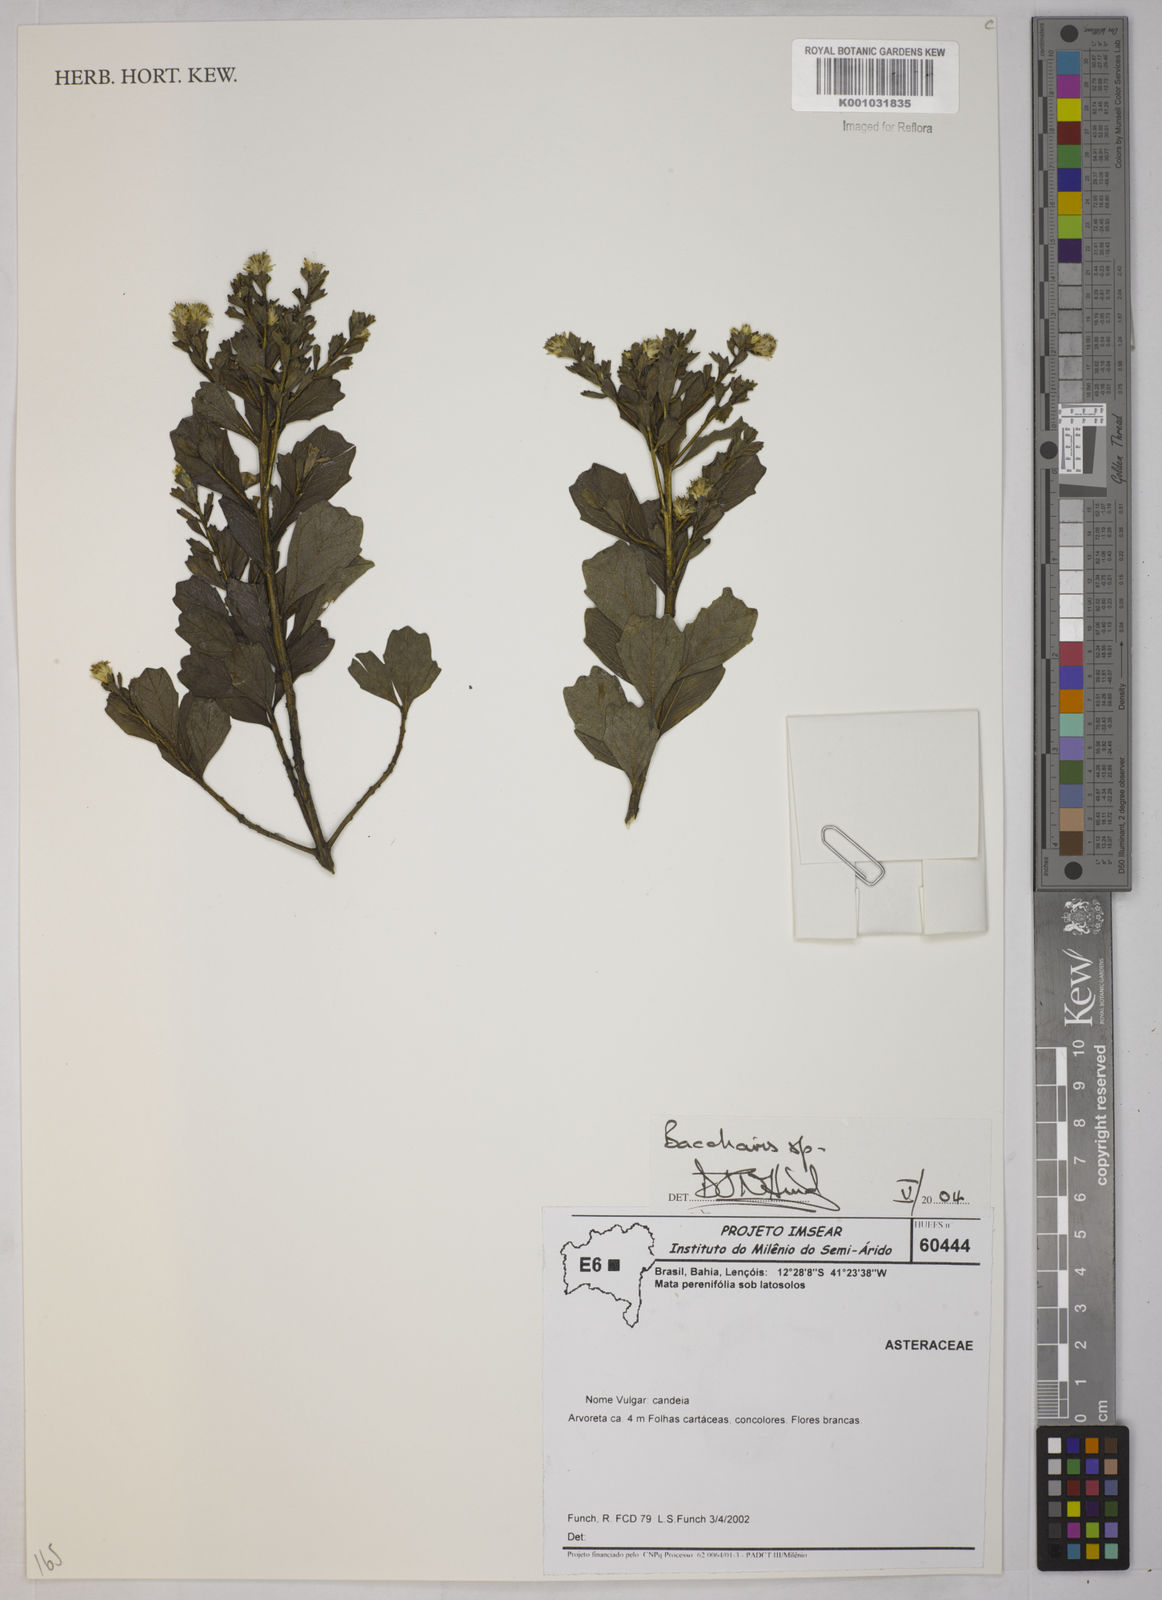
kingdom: Plantae
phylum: Tracheophyta
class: Magnoliopsida
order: Asterales
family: Asteraceae
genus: Baccharis
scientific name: Baccharis
